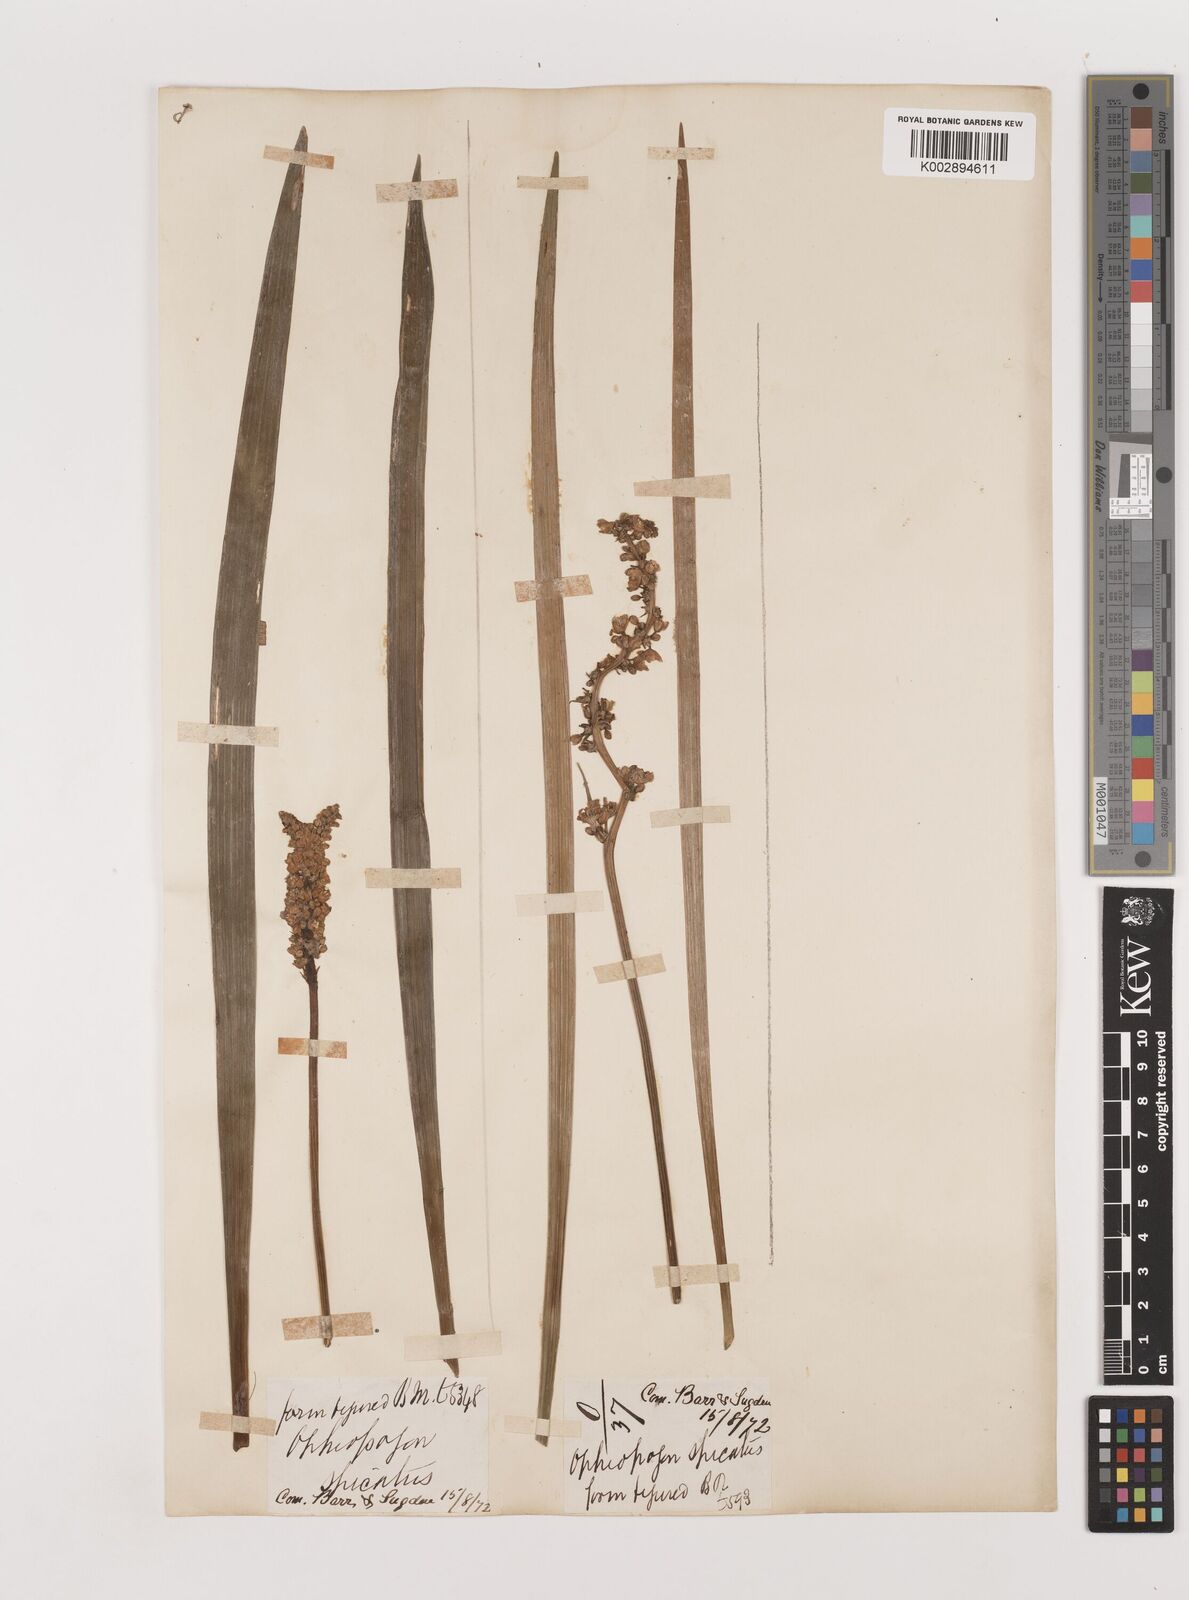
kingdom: Plantae
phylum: Tracheophyta
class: Liliopsida
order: Asparagales
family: Asparagaceae
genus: Liriope
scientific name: Liriope muscari
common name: Big blue lilyturf
